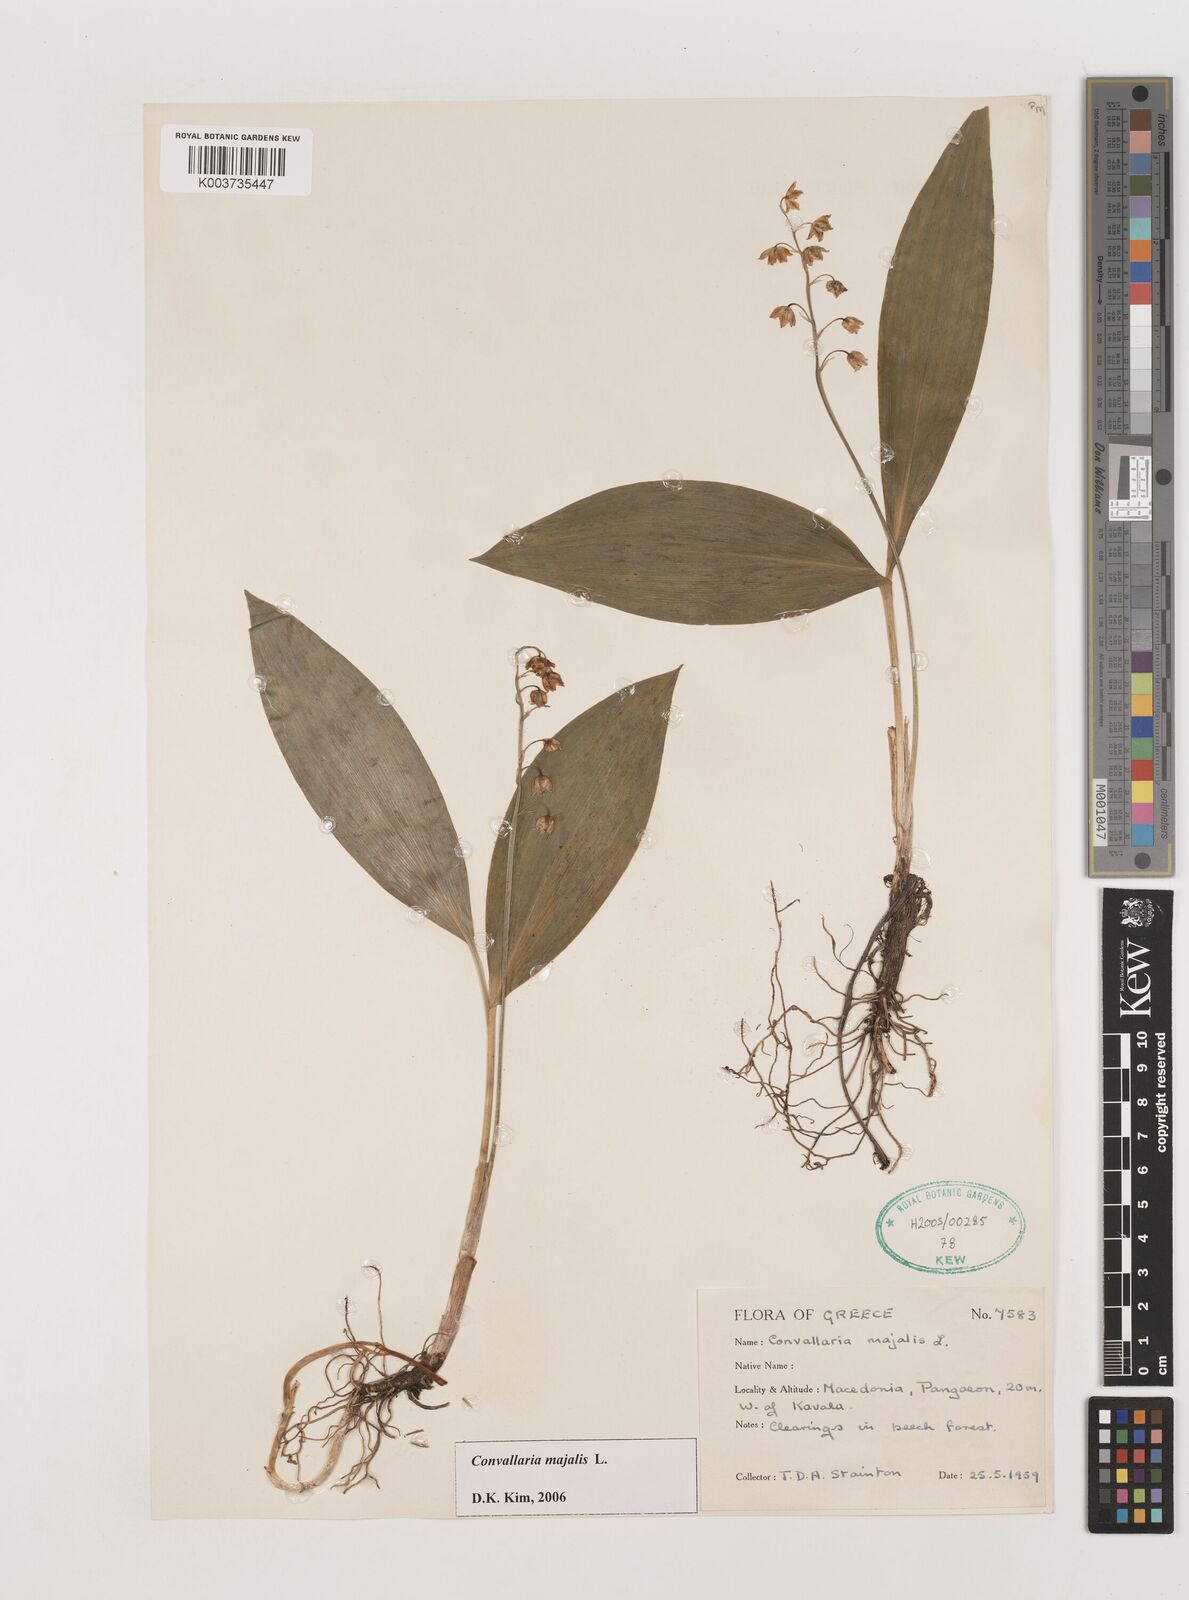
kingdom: Plantae
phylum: Tracheophyta
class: Liliopsida
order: Asparagales
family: Asparagaceae
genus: Convallaria
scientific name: Convallaria majalis
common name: Lily-of-the-valley
